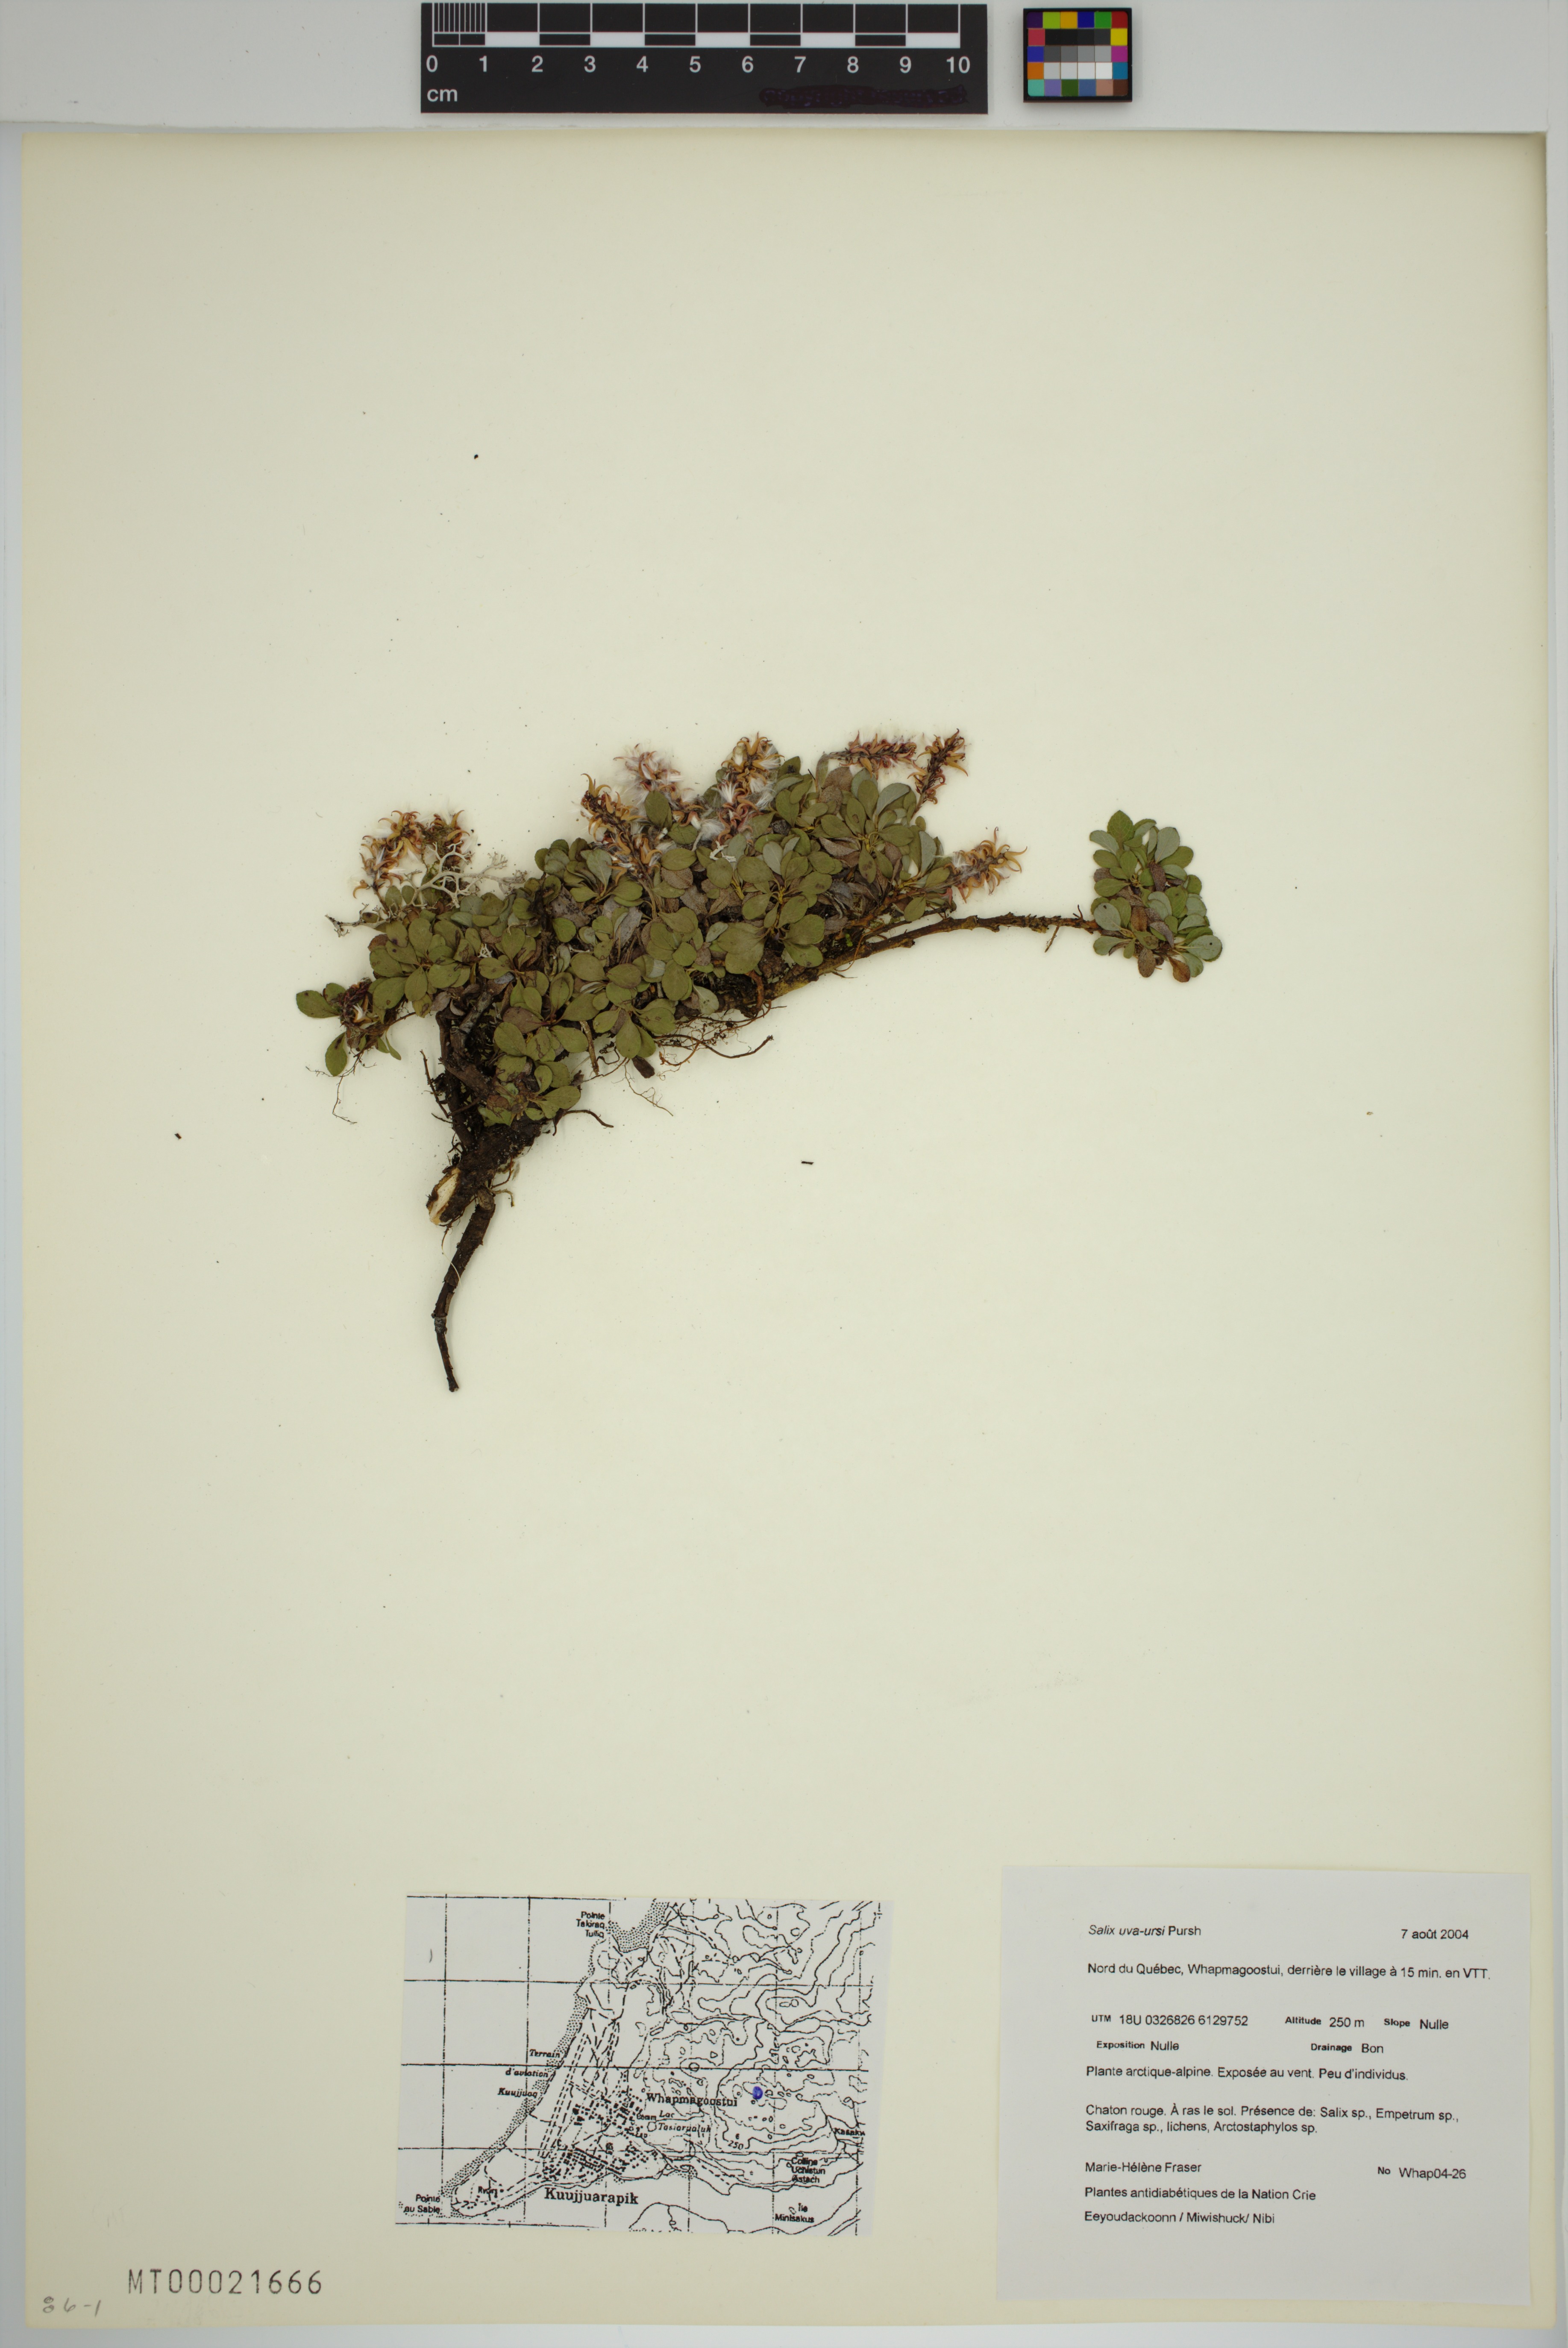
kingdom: Plantae
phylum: Tracheophyta
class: Magnoliopsida
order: Malpighiales
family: Salicaceae
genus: Salix
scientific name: Salix uva-ursi
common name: Bearberry willow
